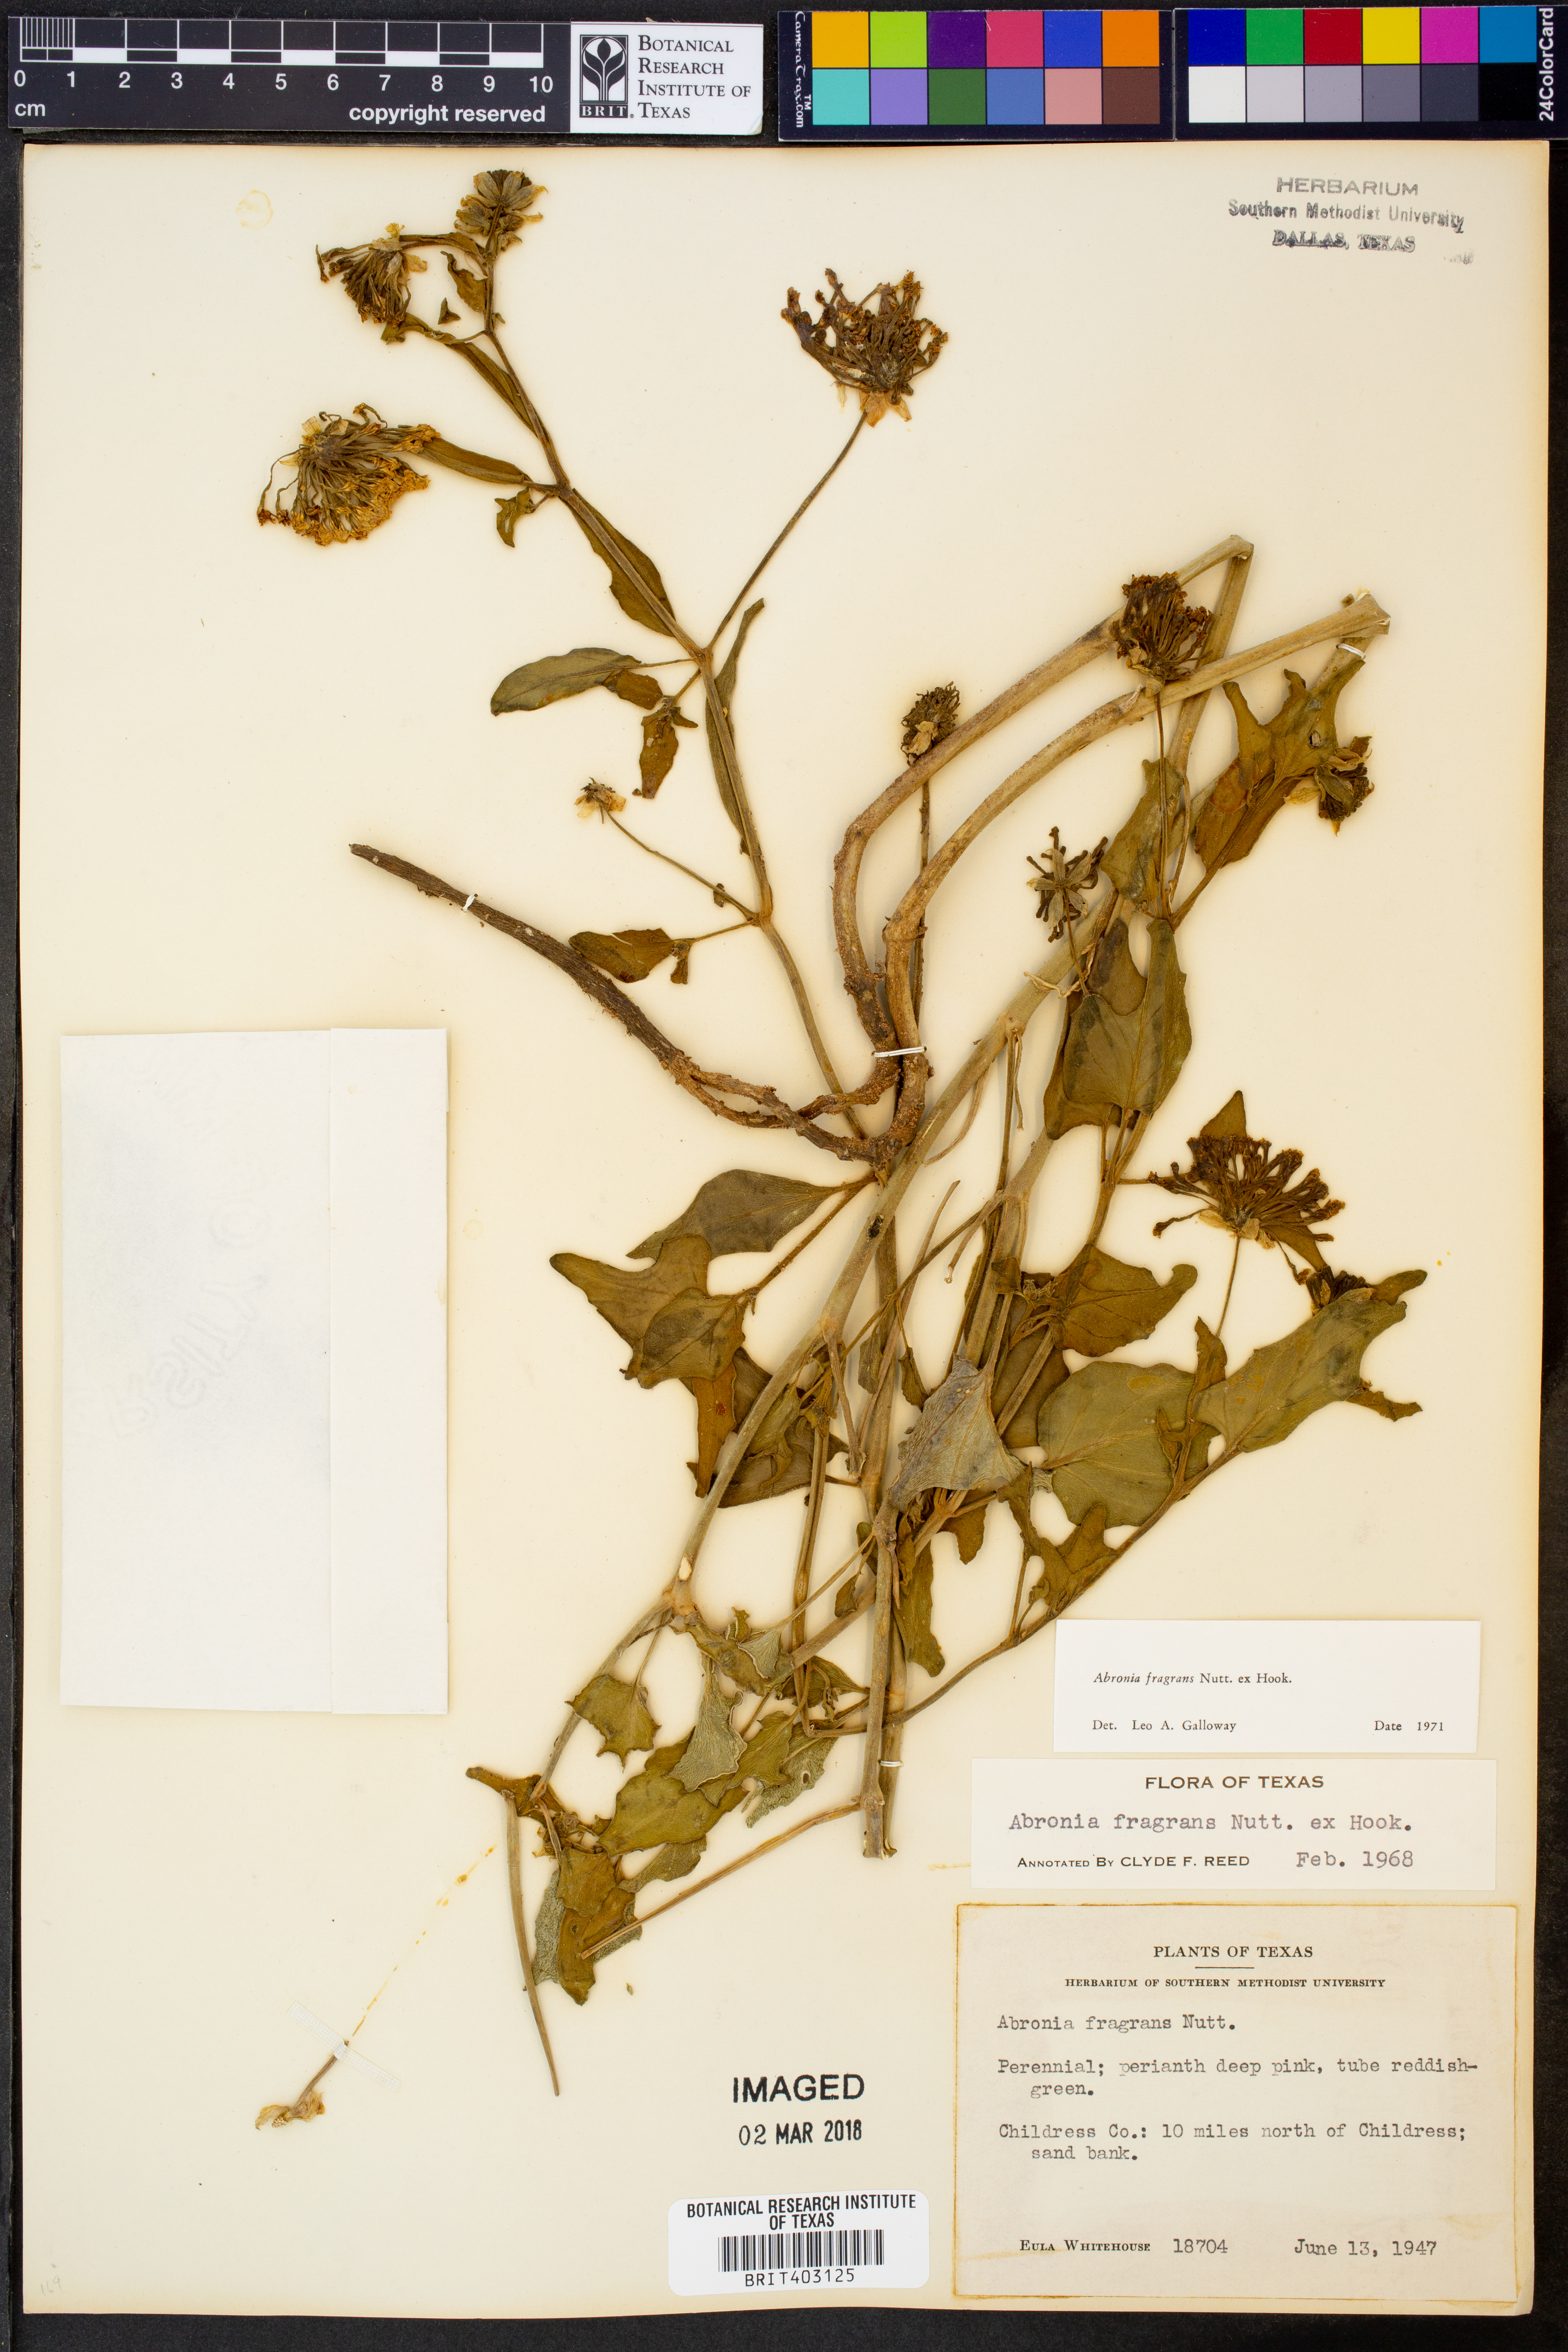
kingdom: Plantae
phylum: Tracheophyta
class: Magnoliopsida
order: Caryophyllales
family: Nyctaginaceae
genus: Abronia
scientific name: Abronia fragrans
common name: Fragrant sand-verbena
